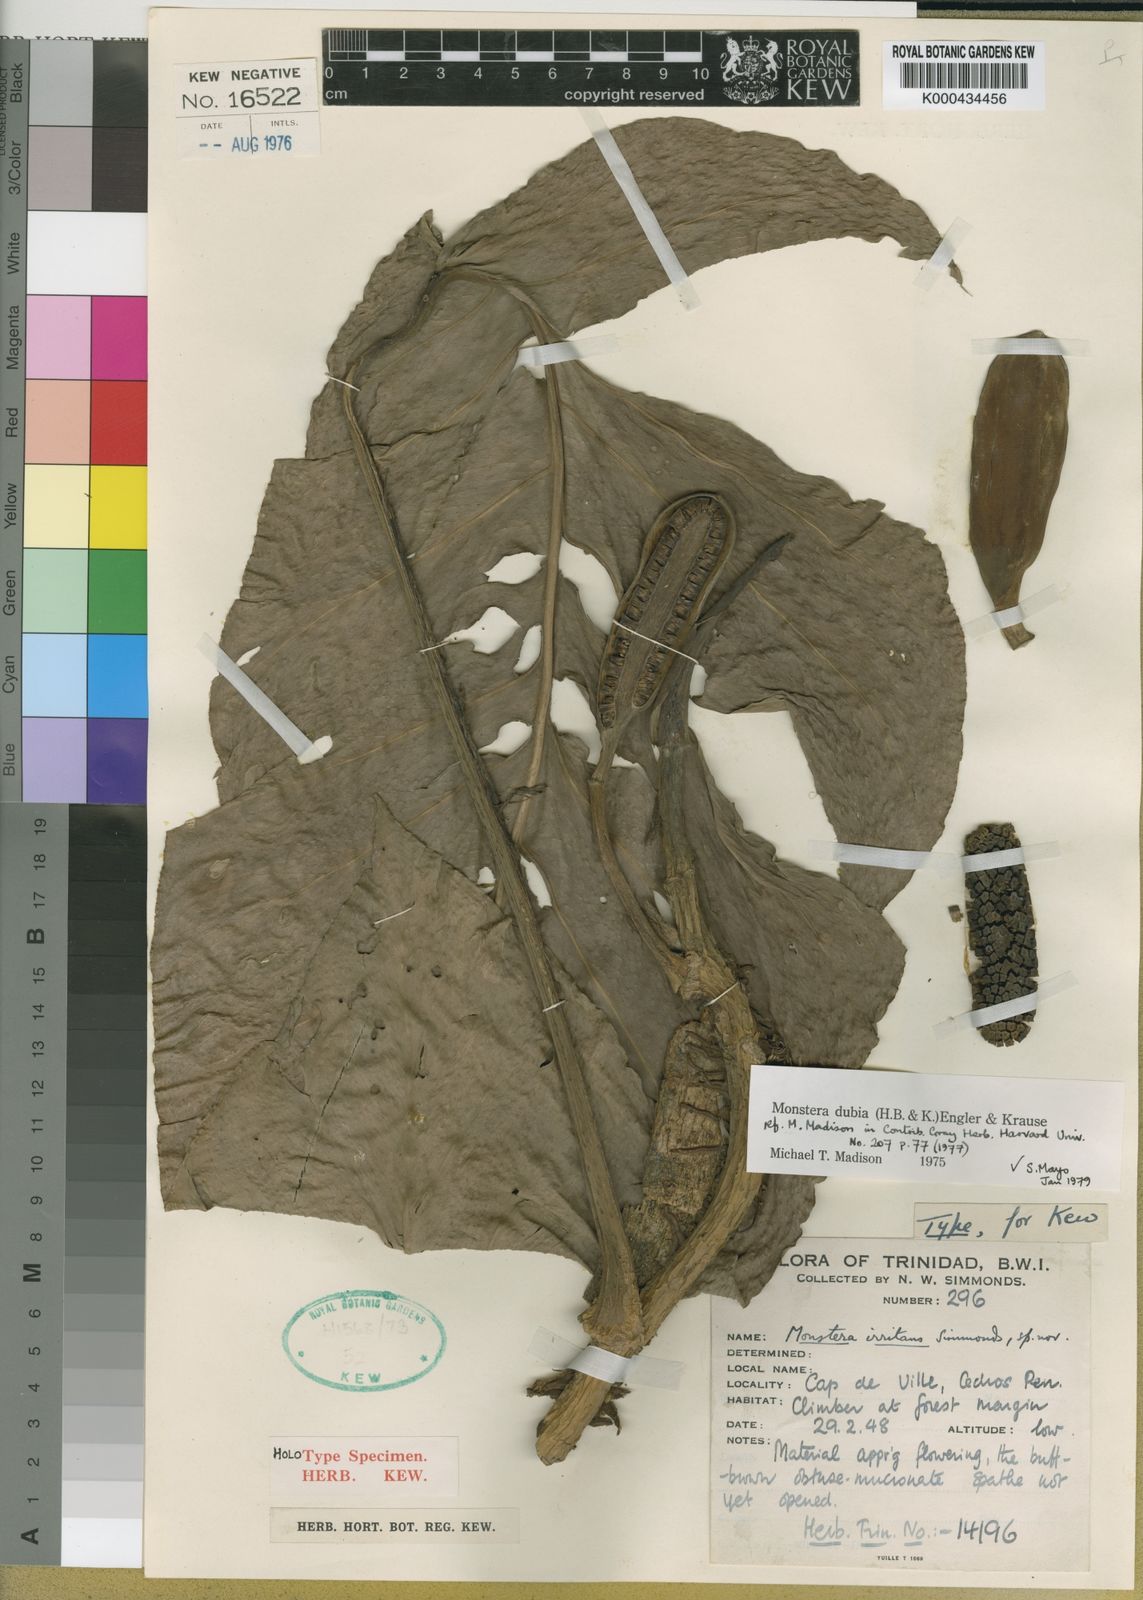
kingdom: Plantae
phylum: Tracheophyta
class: Liliopsida
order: Alismatales
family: Araceae
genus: Monstera
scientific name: Monstera dubia
